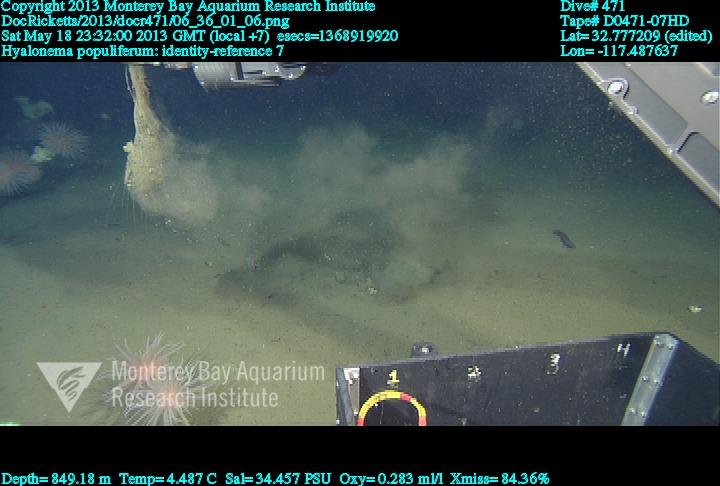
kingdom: Animalia
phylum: Porifera
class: Hexactinellida
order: Amphidiscosida
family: Hyalonematidae
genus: Hyalonema
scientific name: Hyalonema populiferum
